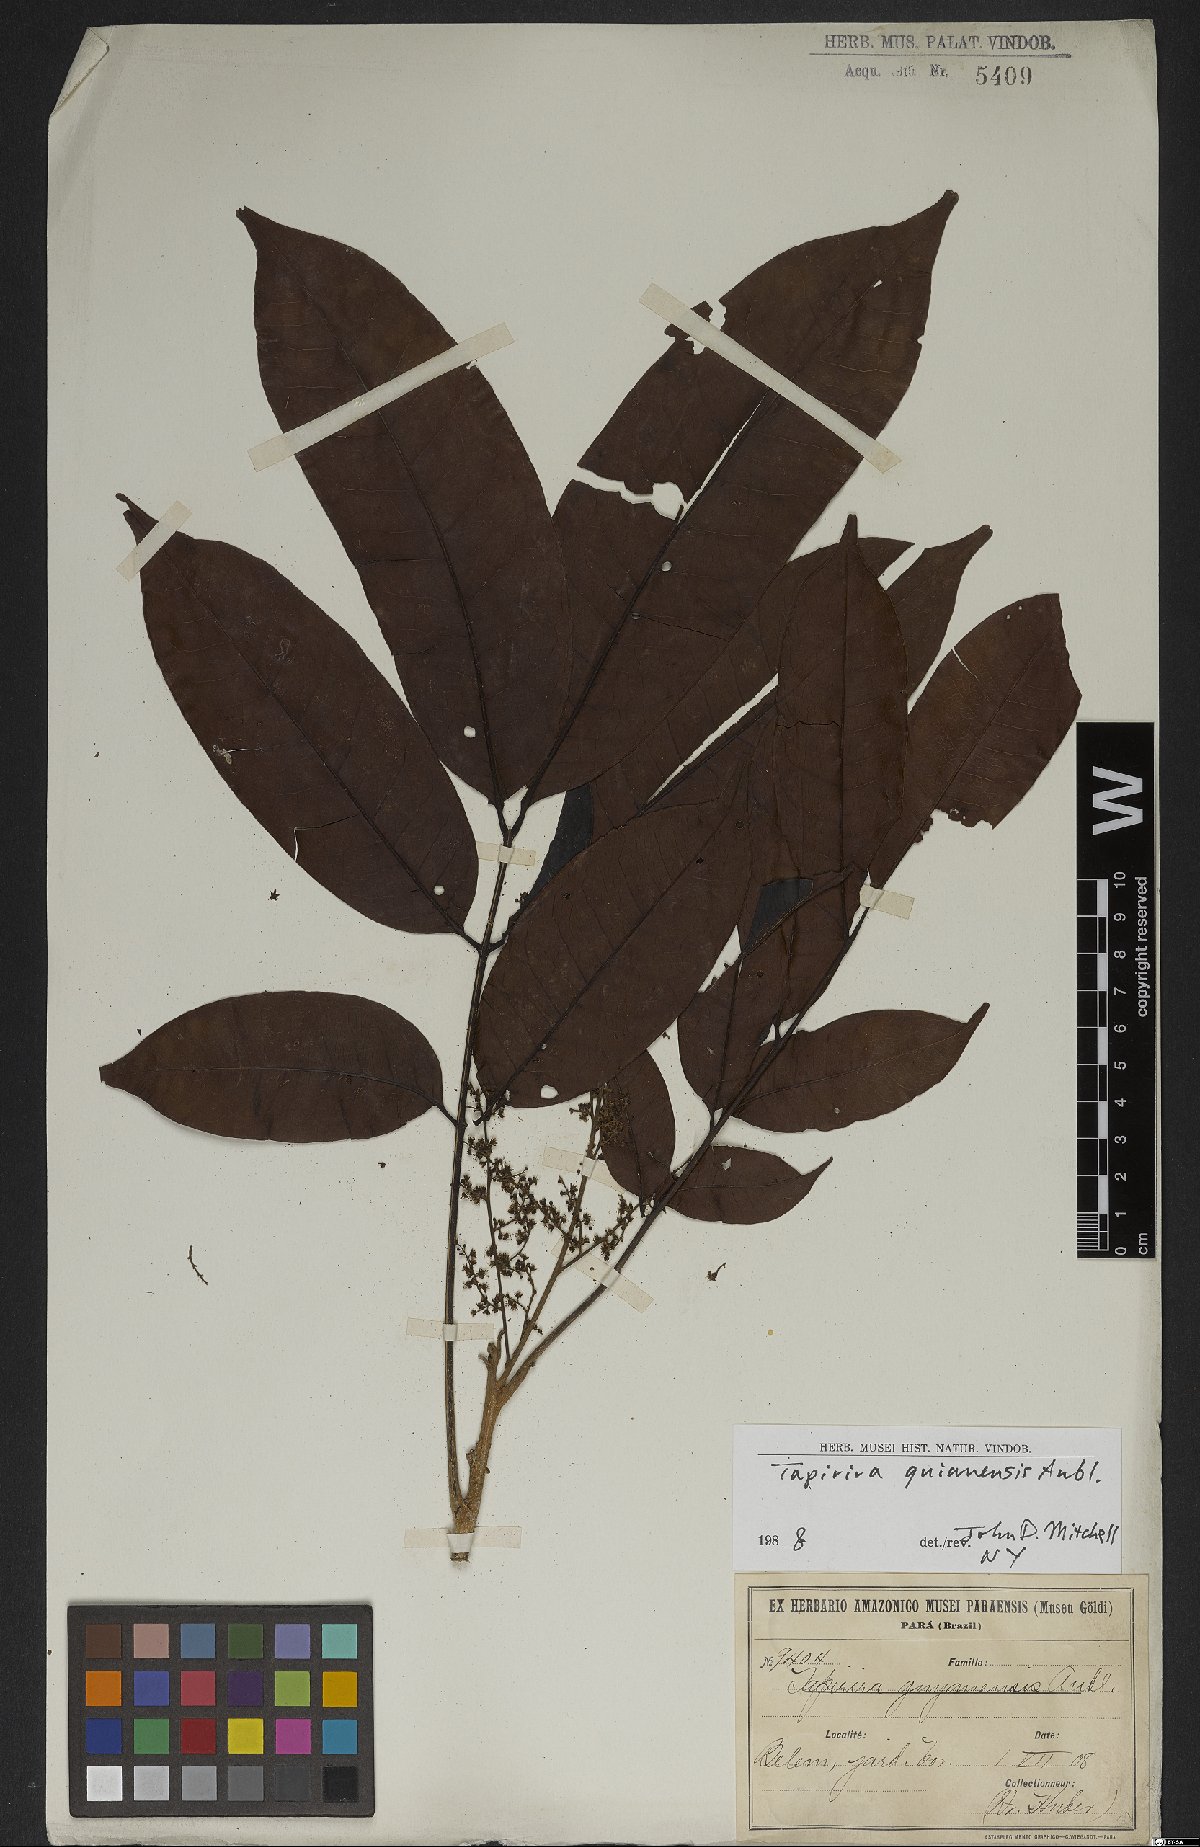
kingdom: Plantae
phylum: Tracheophyta
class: Magnoliopsida
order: Sapindales
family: Anacardiaceae
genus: Tapirira
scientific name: Tapirira guianensis
